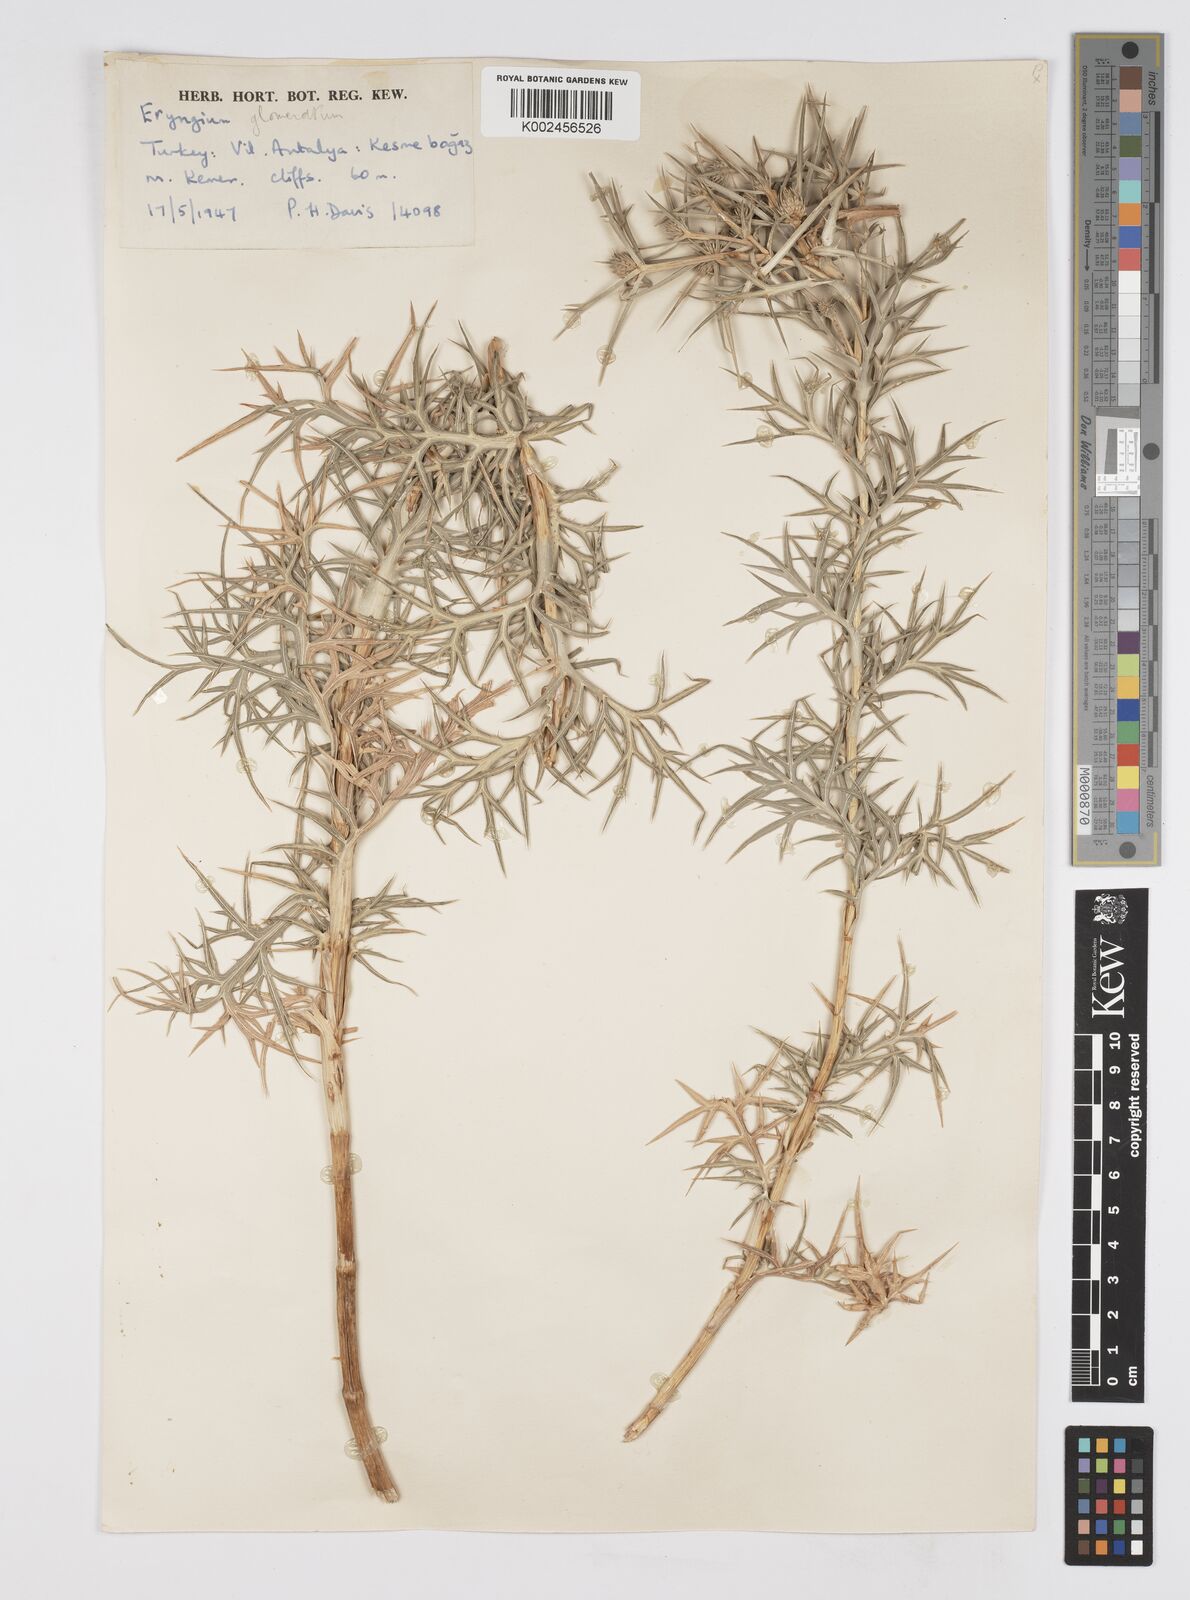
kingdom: Plantae
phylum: Tracheophyta
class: Magnoliopsida
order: Apiales
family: Apiaceae
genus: Eryngium
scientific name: Eryngium glomeratum
